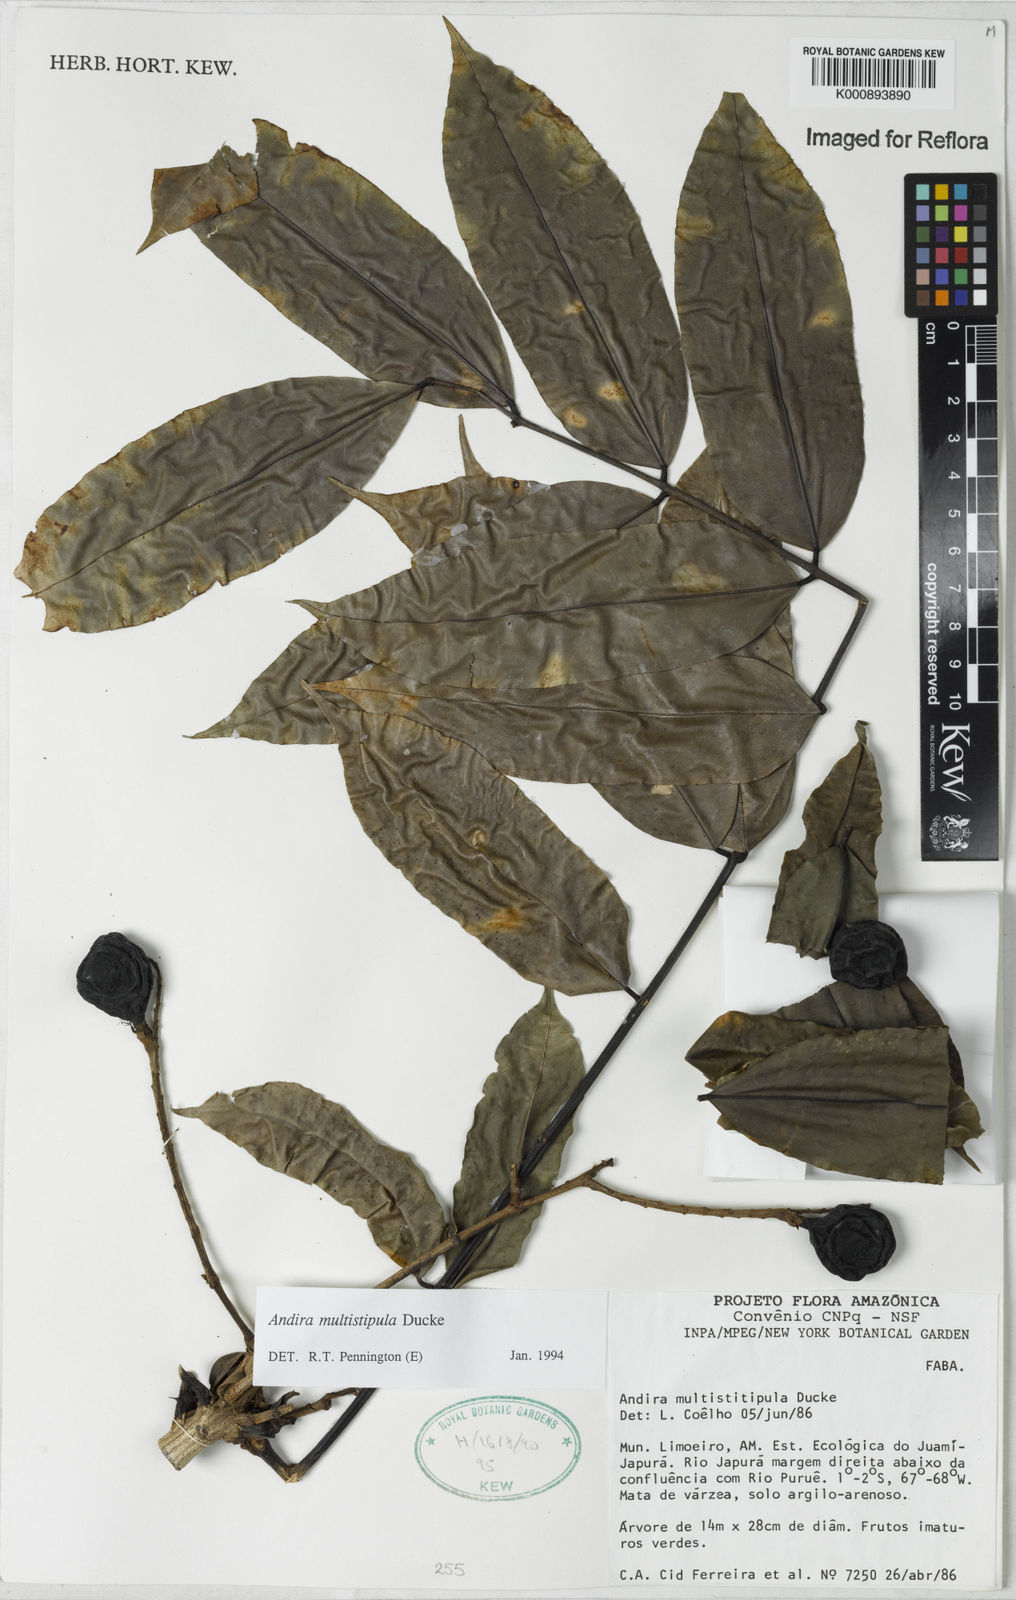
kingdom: Plantae
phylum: Tracheophyta
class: Magnoliopsida
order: Fabales
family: Fabaceae
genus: Andira
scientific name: Andira multistipula
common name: Pisho
